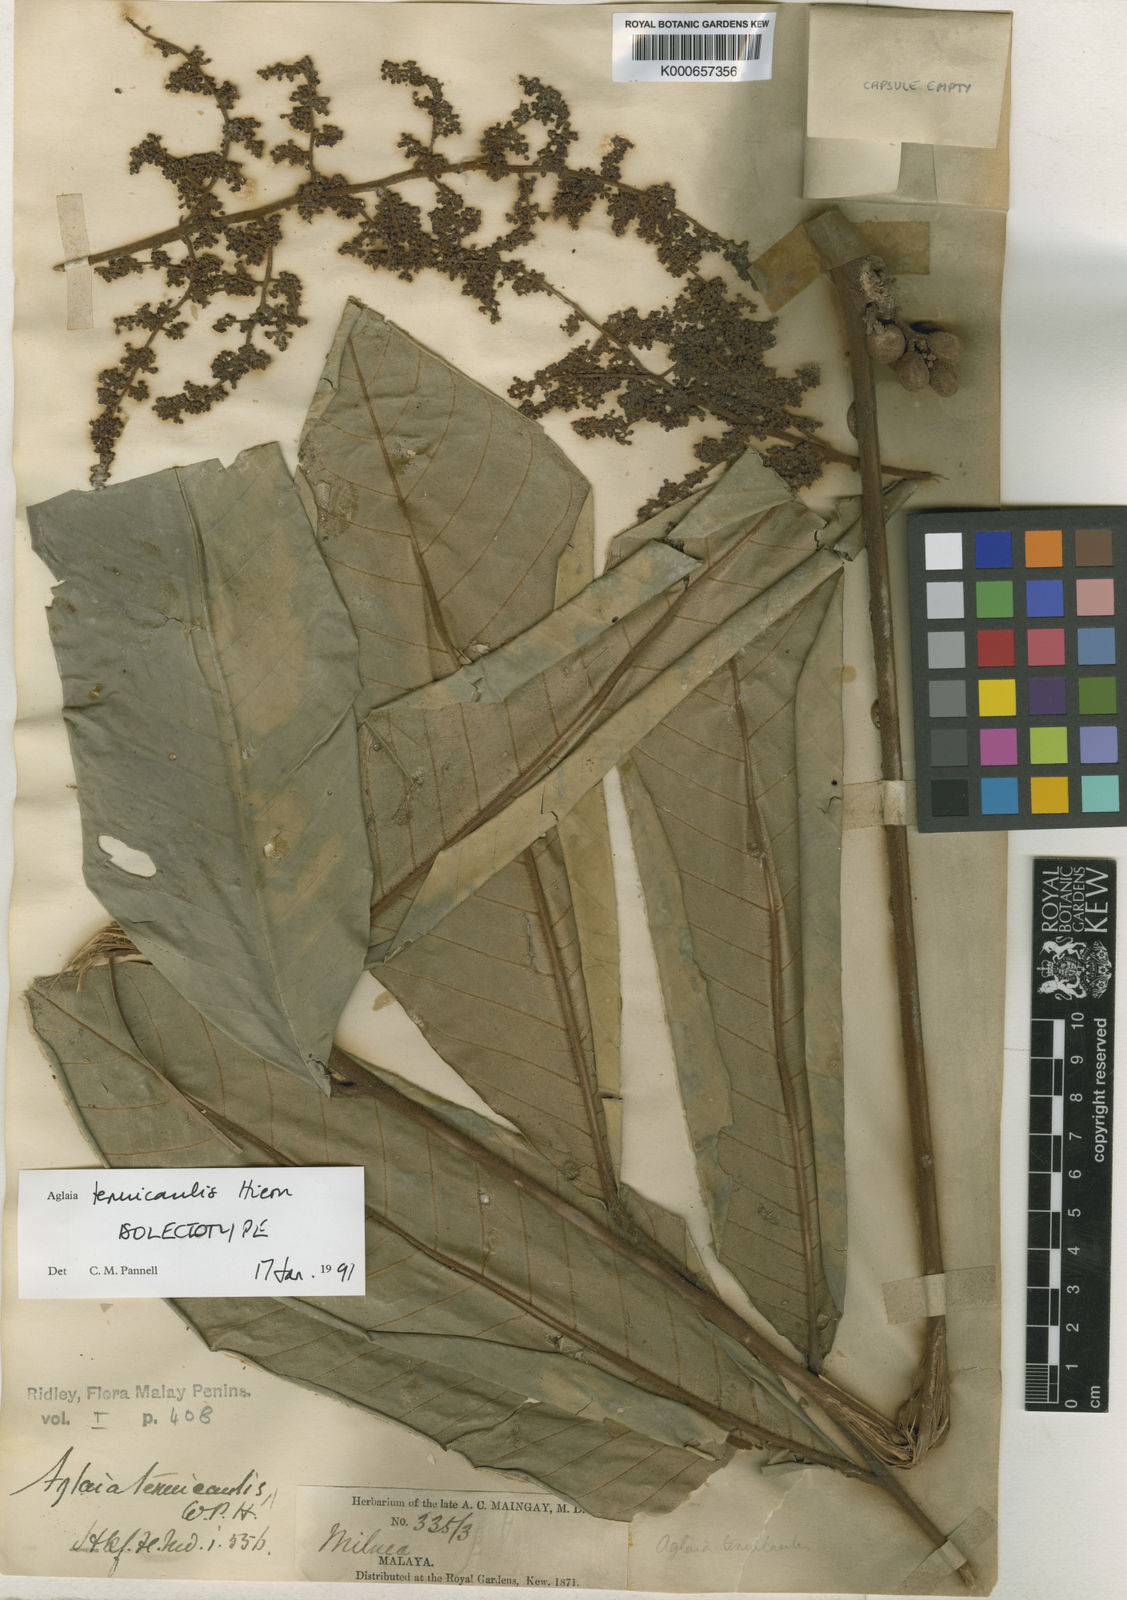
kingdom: Plantae
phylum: Tracheophyta
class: Magnoliopsida
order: Sapindales
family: Meliaceae
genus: Aglaia
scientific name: Aglaia tenuicaulis
